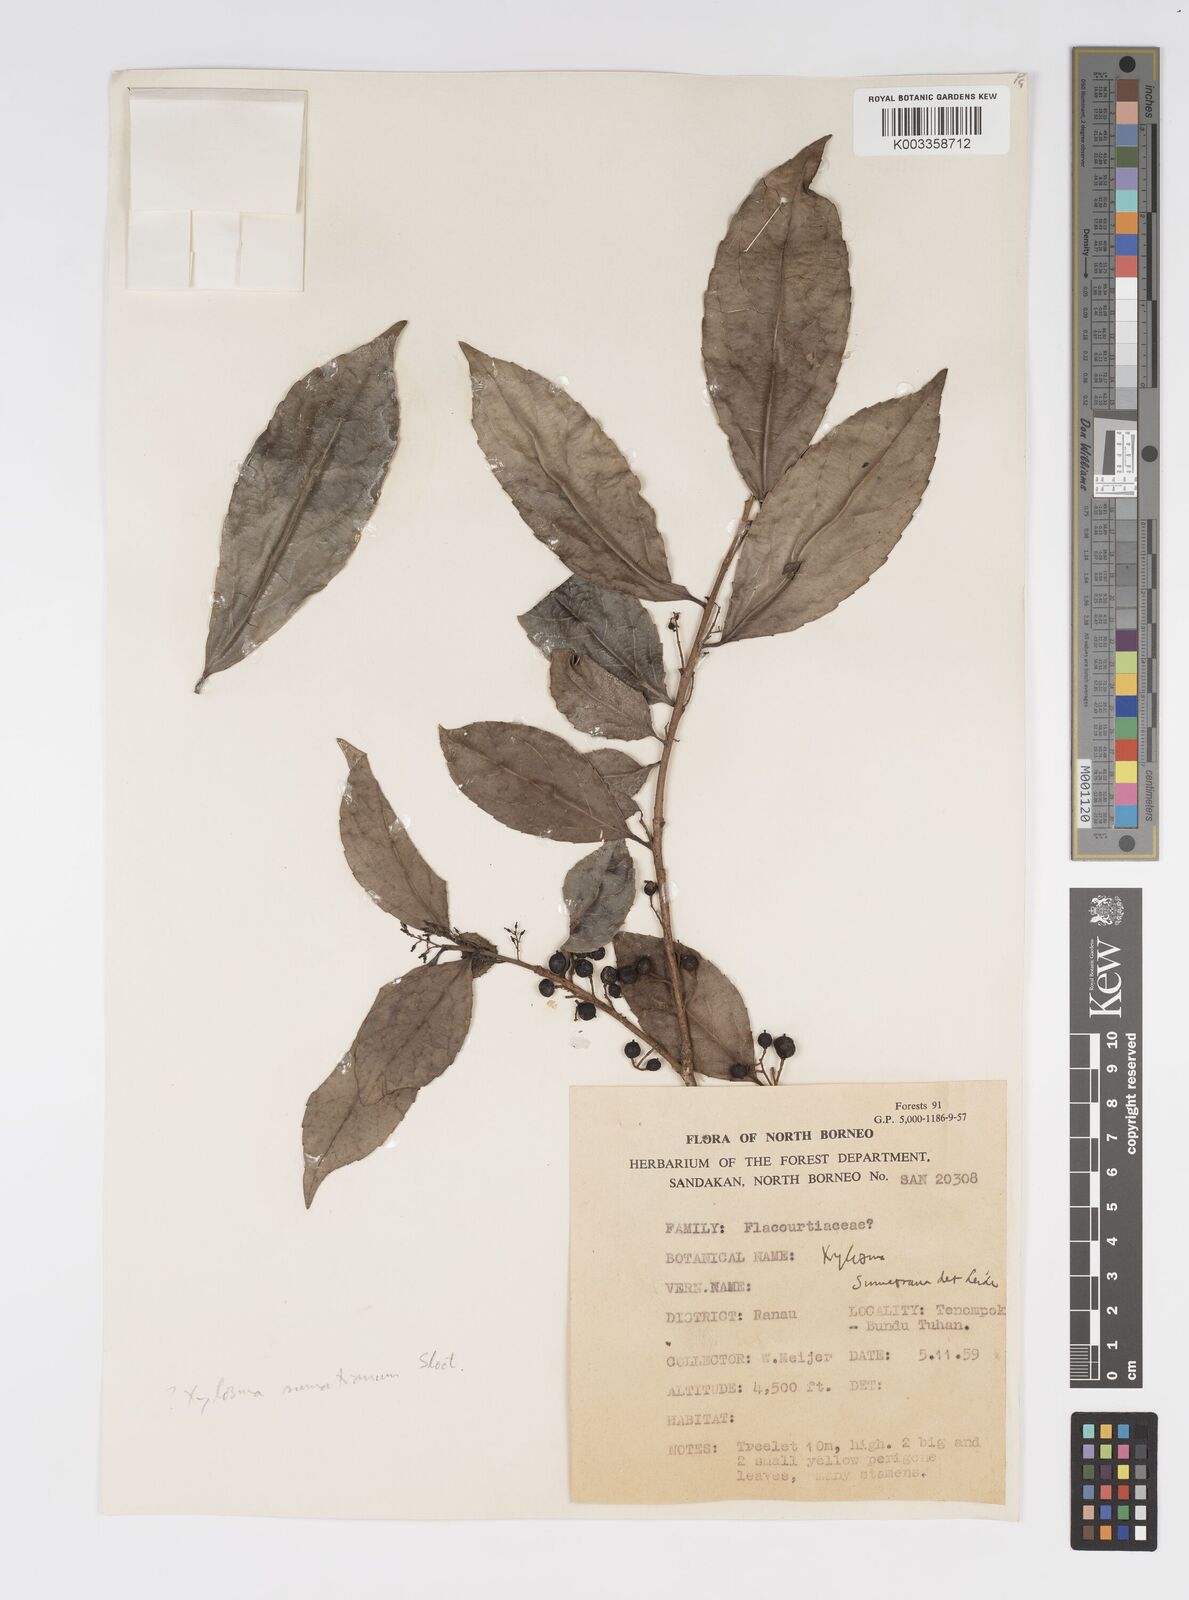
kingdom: Plantae
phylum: Tracheophyta
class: Magnoliopsida
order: Malpighiales
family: Salicaceae
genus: Xylosma
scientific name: Xylosma sumatrana
